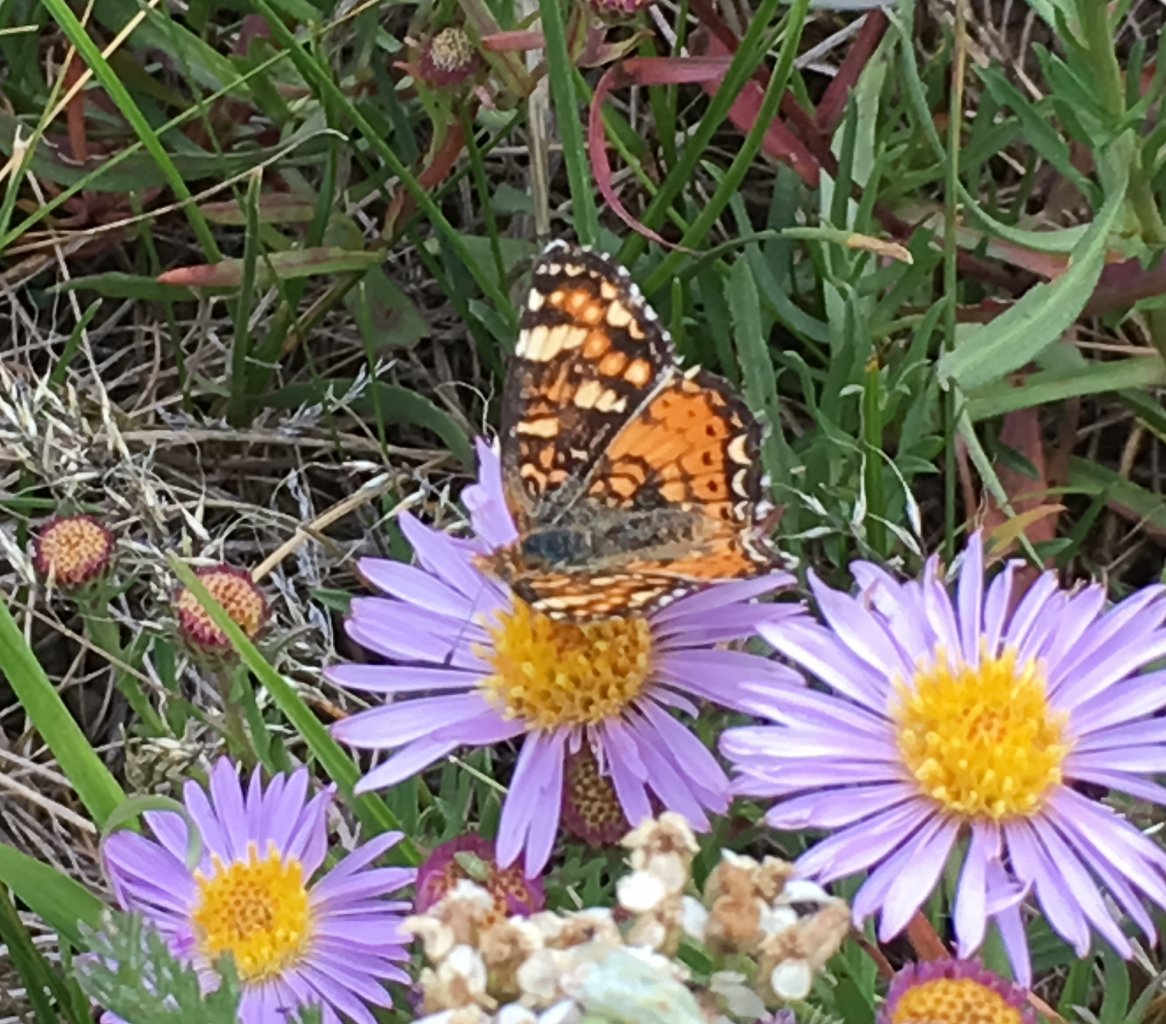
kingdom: Animalia
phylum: Arthropoda
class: Insecta
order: Lepidoptera
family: Nymphalidae
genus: Phyciodes
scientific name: Phyciodes tharos
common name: Field Crescent
